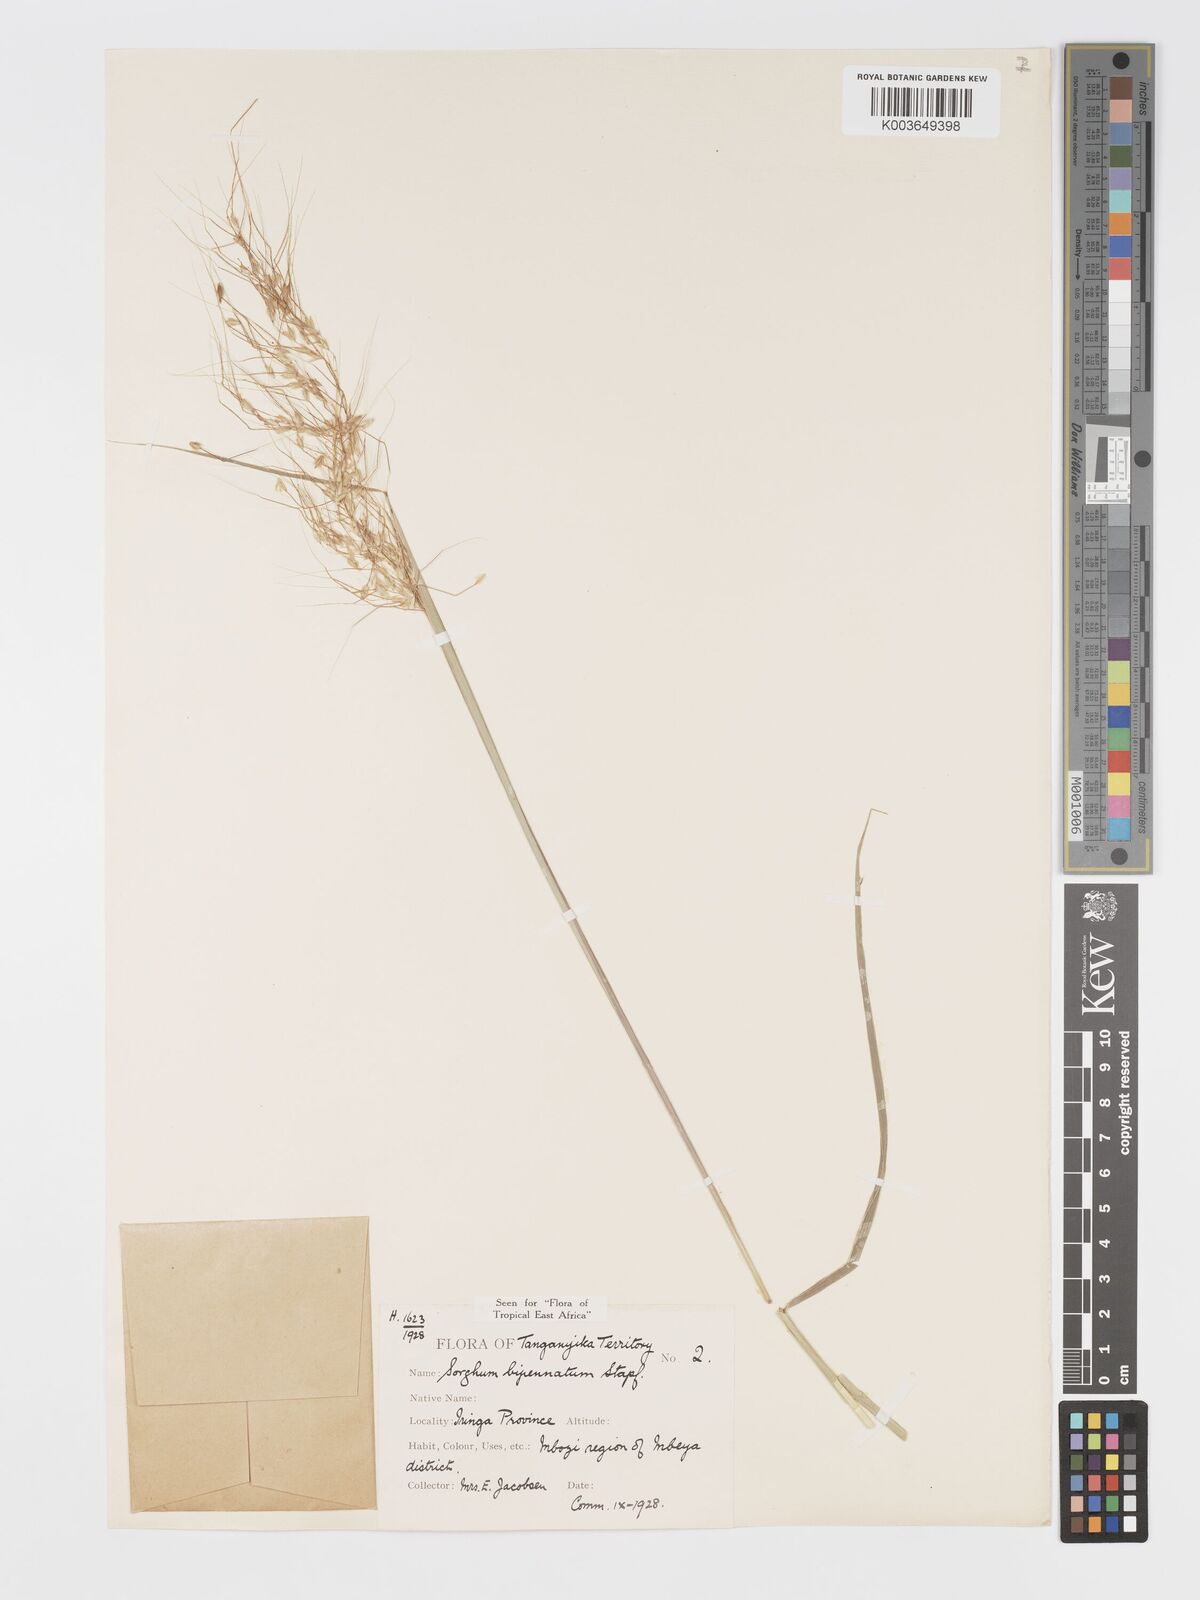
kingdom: Plantae
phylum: Tracheophyta
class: Liliopsida
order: Poales
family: Poaceae
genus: Sorghastrum
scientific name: Sorghastrum incompletum
